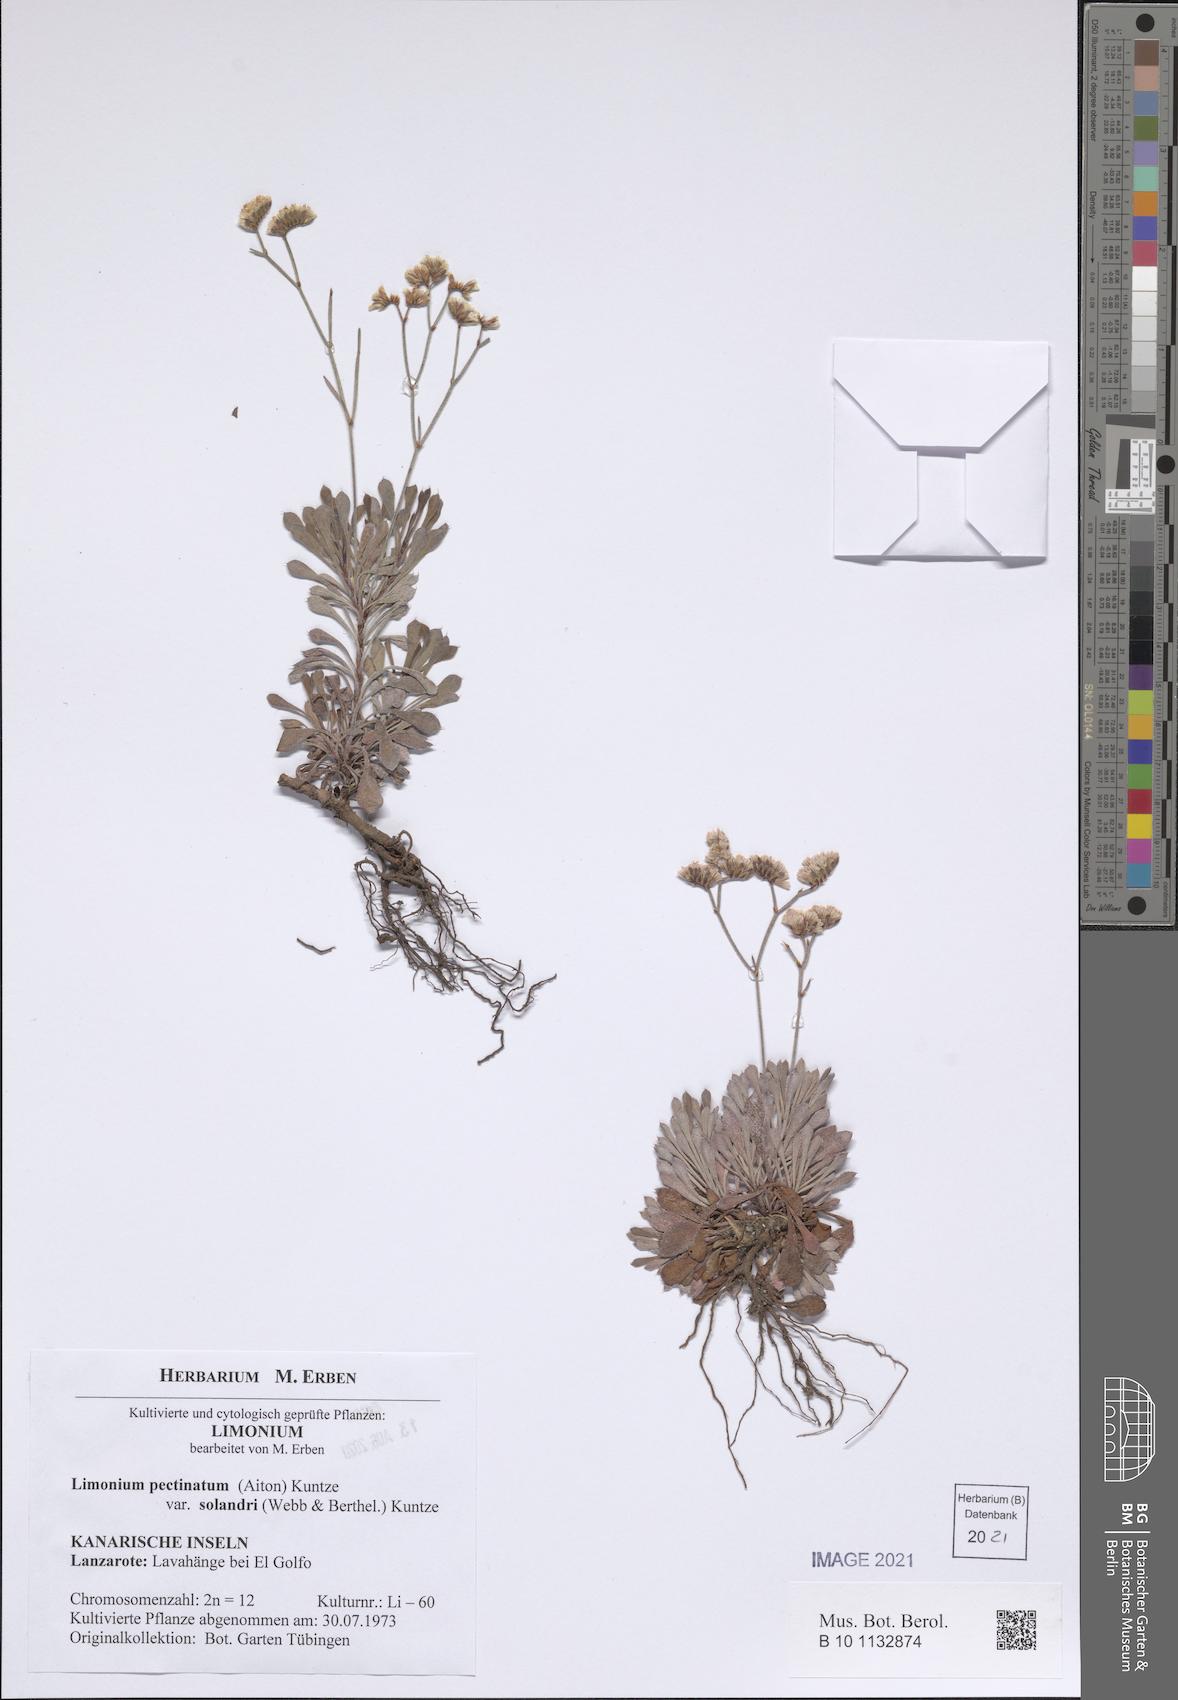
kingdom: Plantae
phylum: Tracheophyta
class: Magnoliopsida
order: Caryophyllales
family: Plumbaginaceae
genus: Limonium
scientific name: Limonium pectinatum
